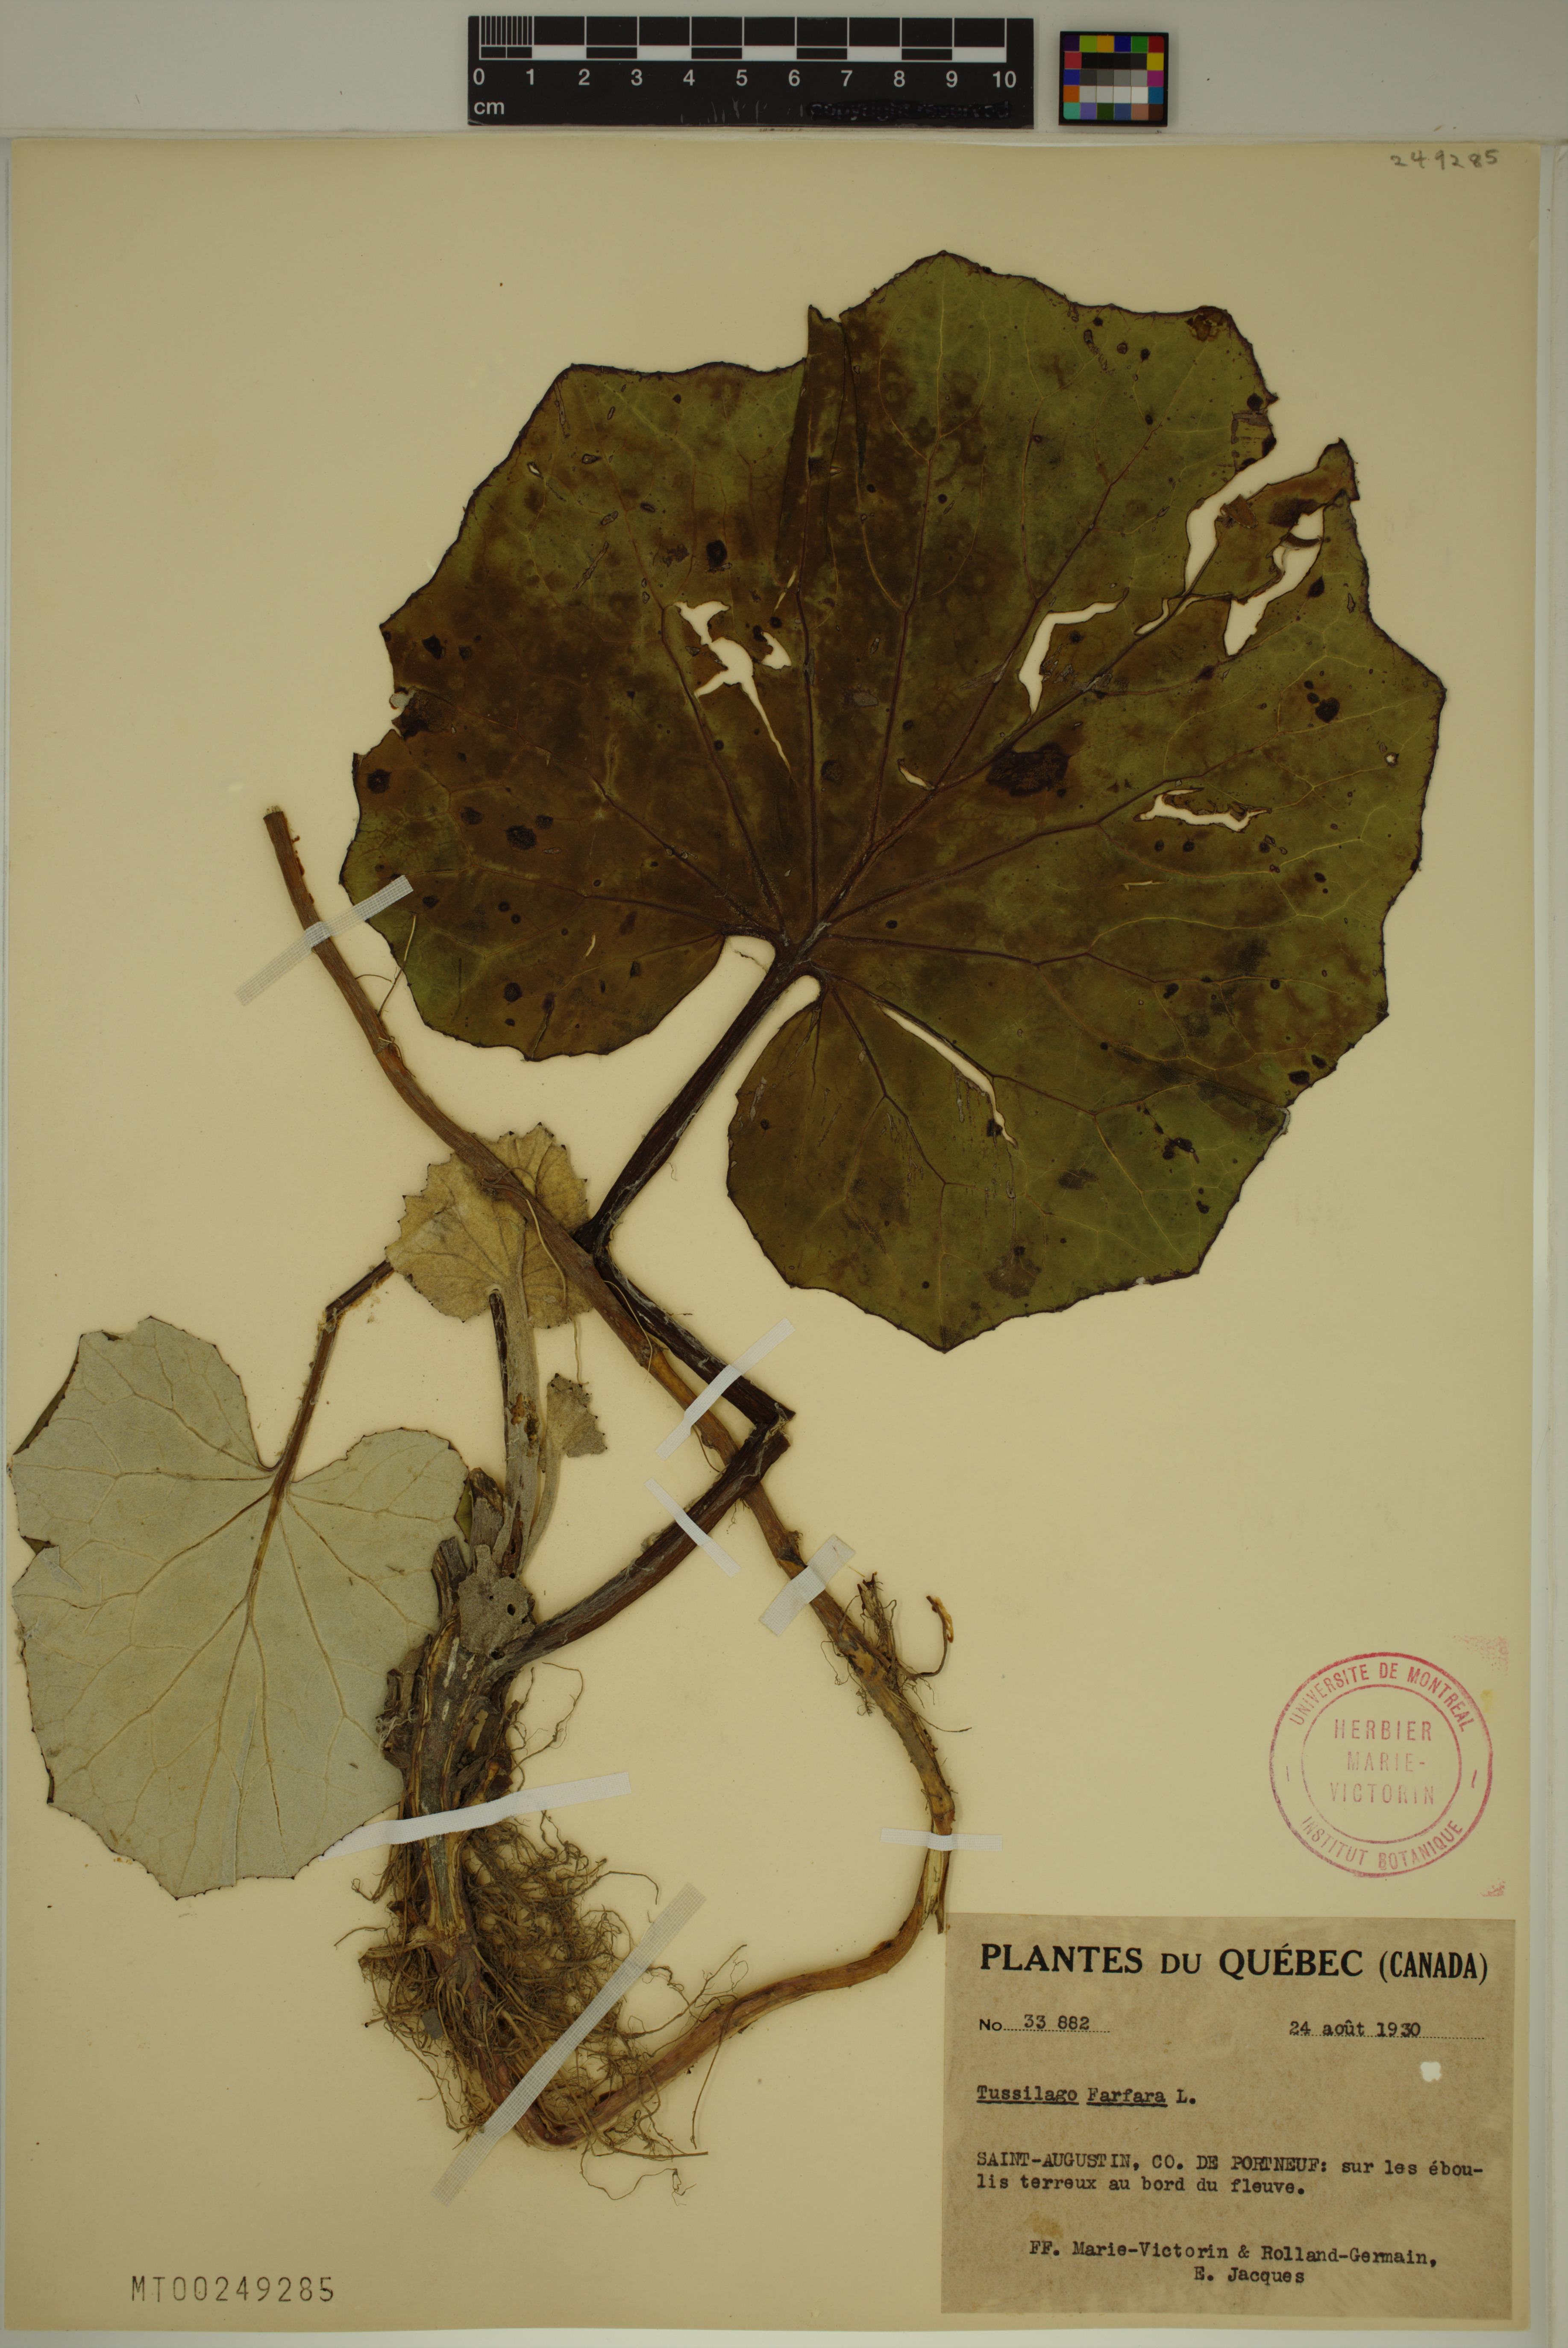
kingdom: Plantae
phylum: Tracheophyta
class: Magnoliopsida
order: Asterales
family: Asteraceae
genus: Tussilago
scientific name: Tussilago farfara
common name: Coltsfoot
